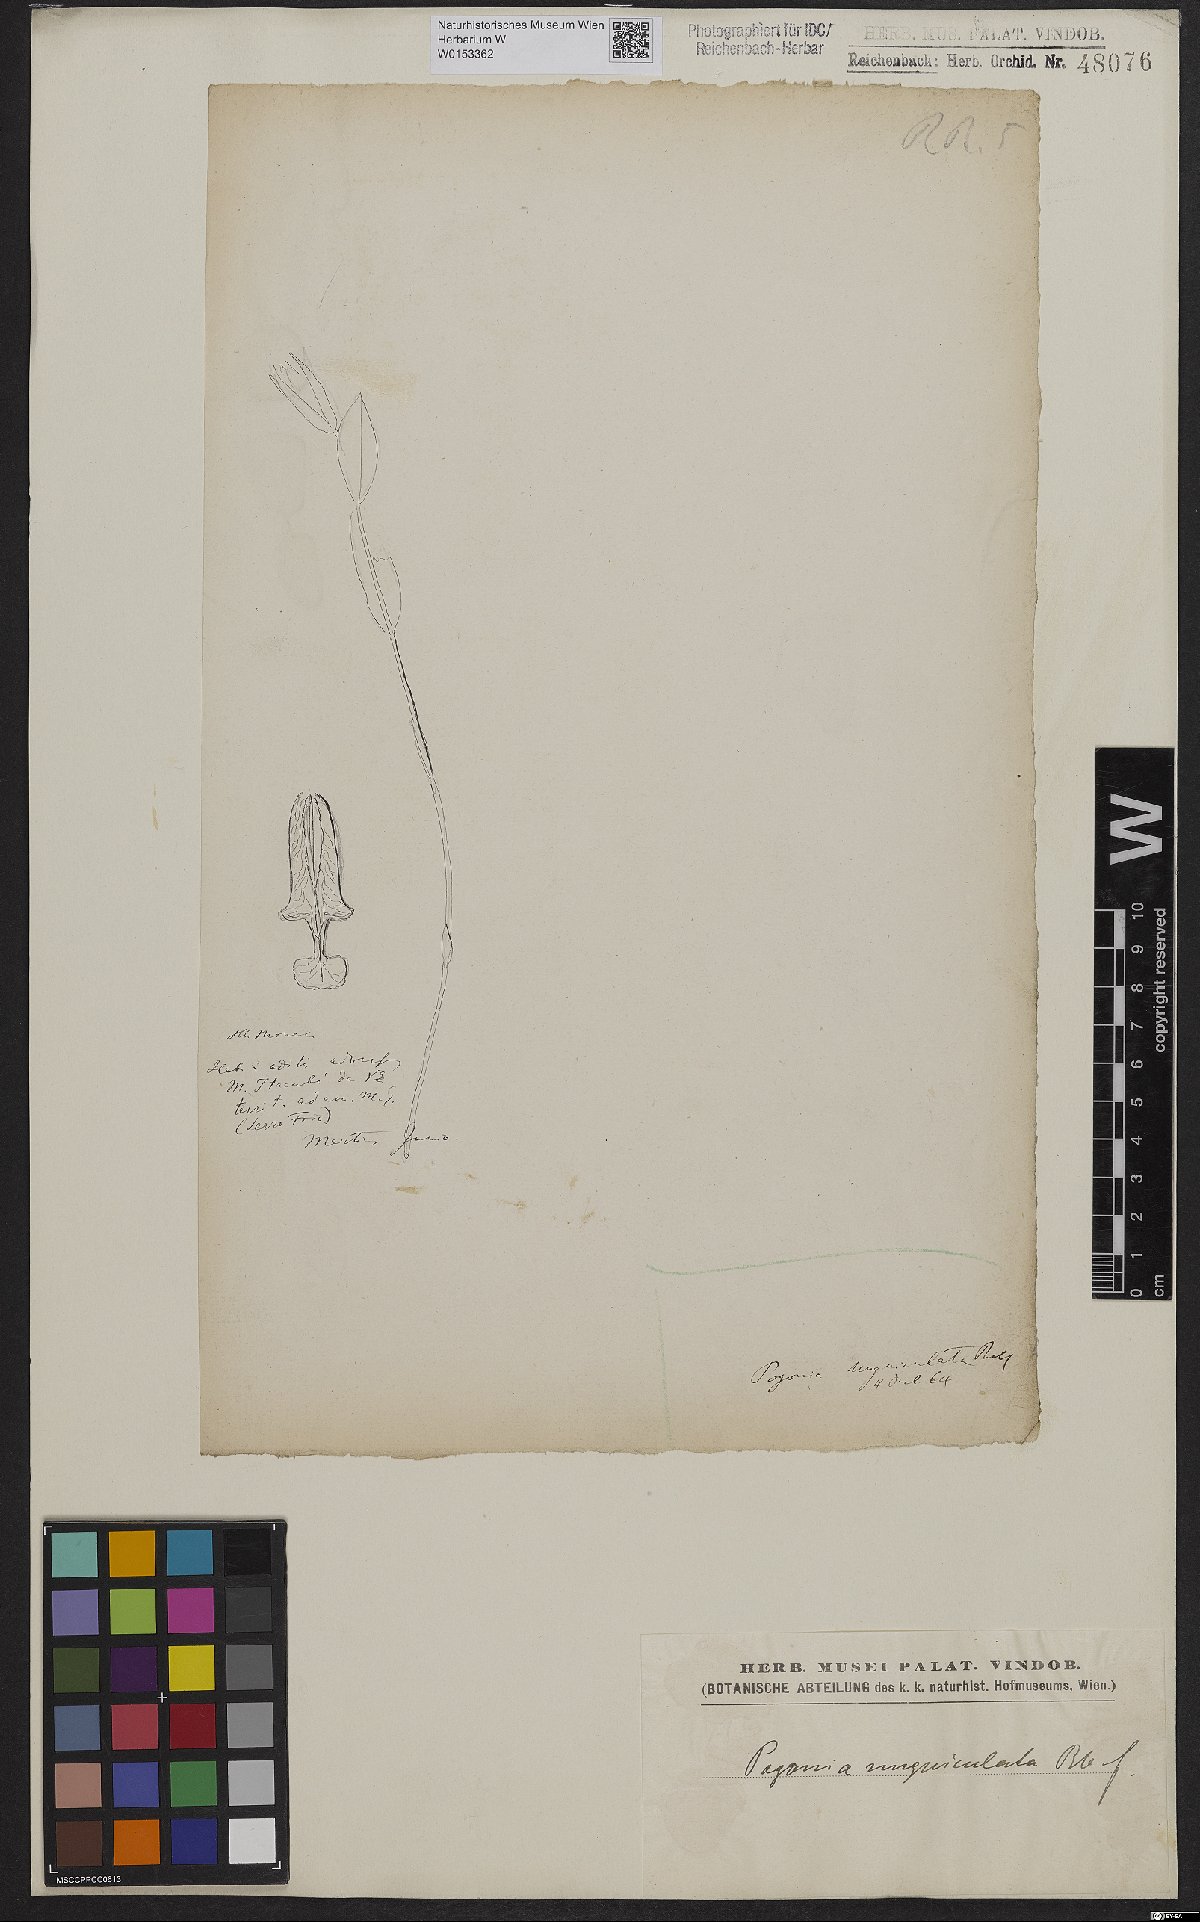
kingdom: Plantae
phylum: Tracheophyta
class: Liliopsida
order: Asparagales
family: Orchidaceae
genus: Cleistes
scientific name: Cleistes unguiculata
